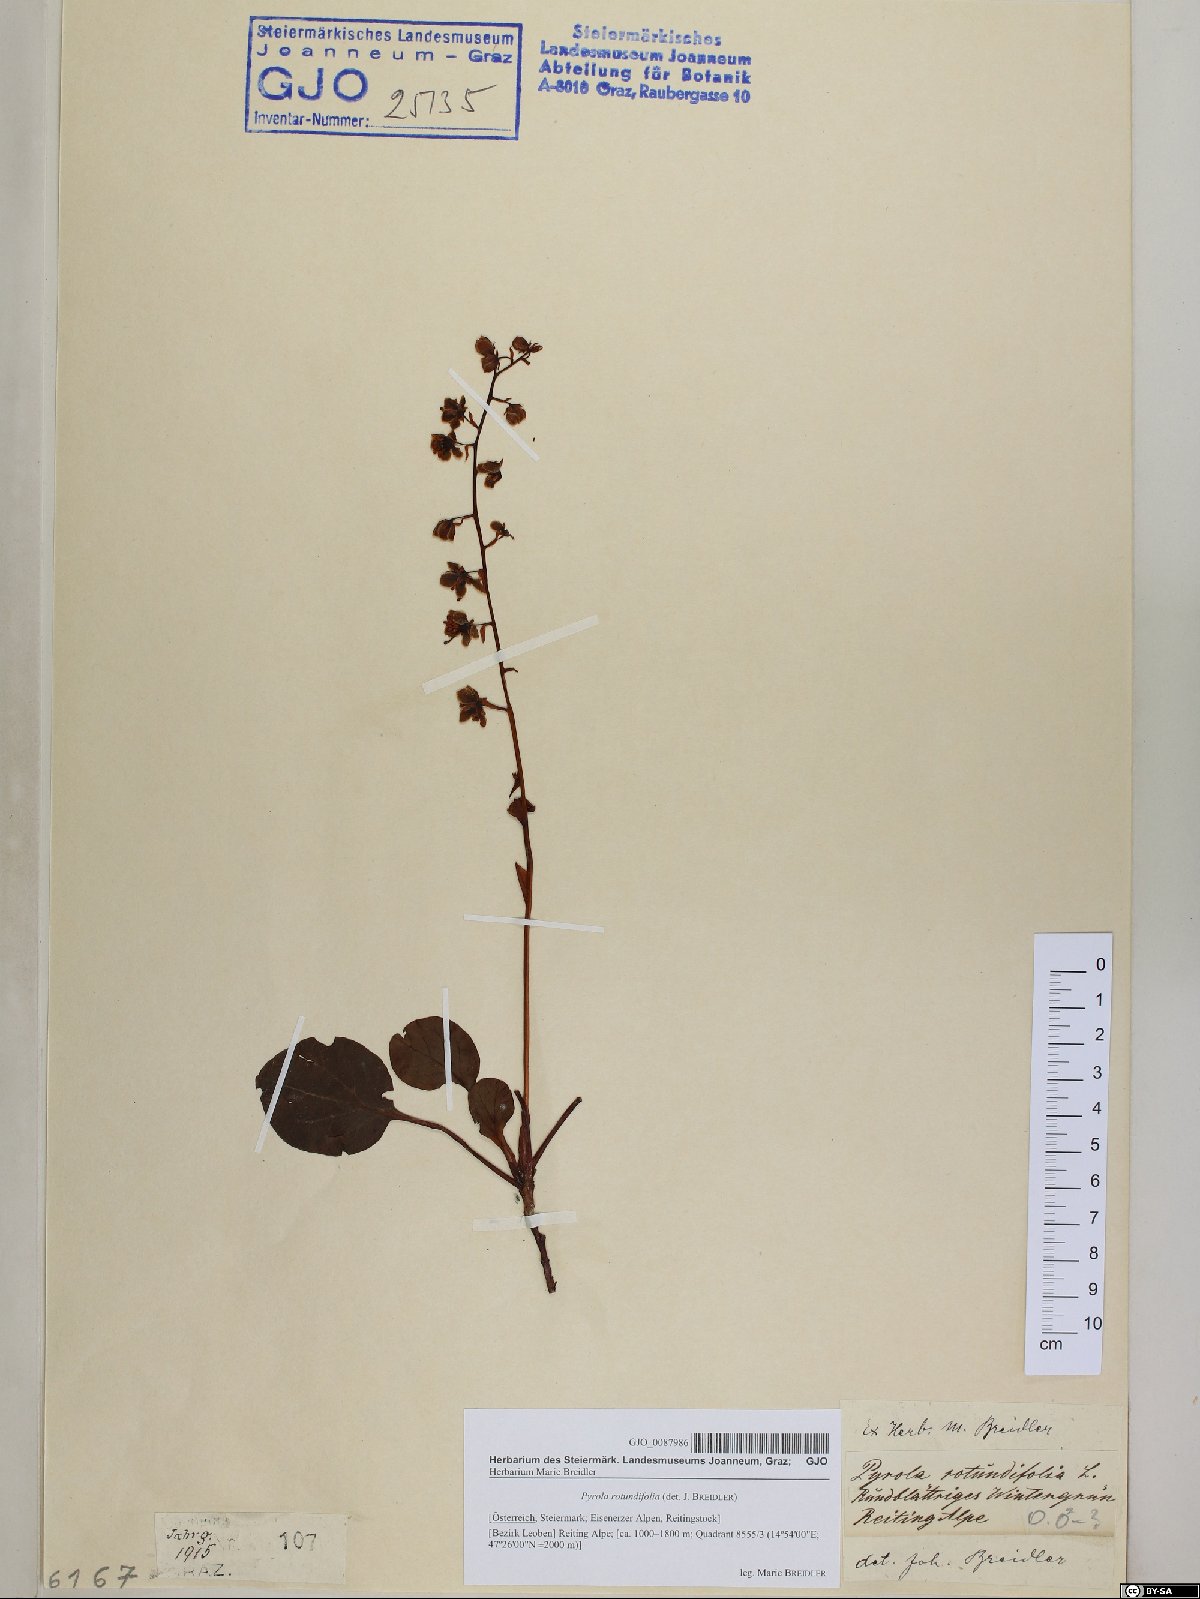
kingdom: Plantae
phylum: Tracheophyta
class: Magnoliopsida
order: Ericales
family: Ericaceae
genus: Pyrola
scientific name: Pyrola rotundifolia
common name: Round-leaved wintergreen
